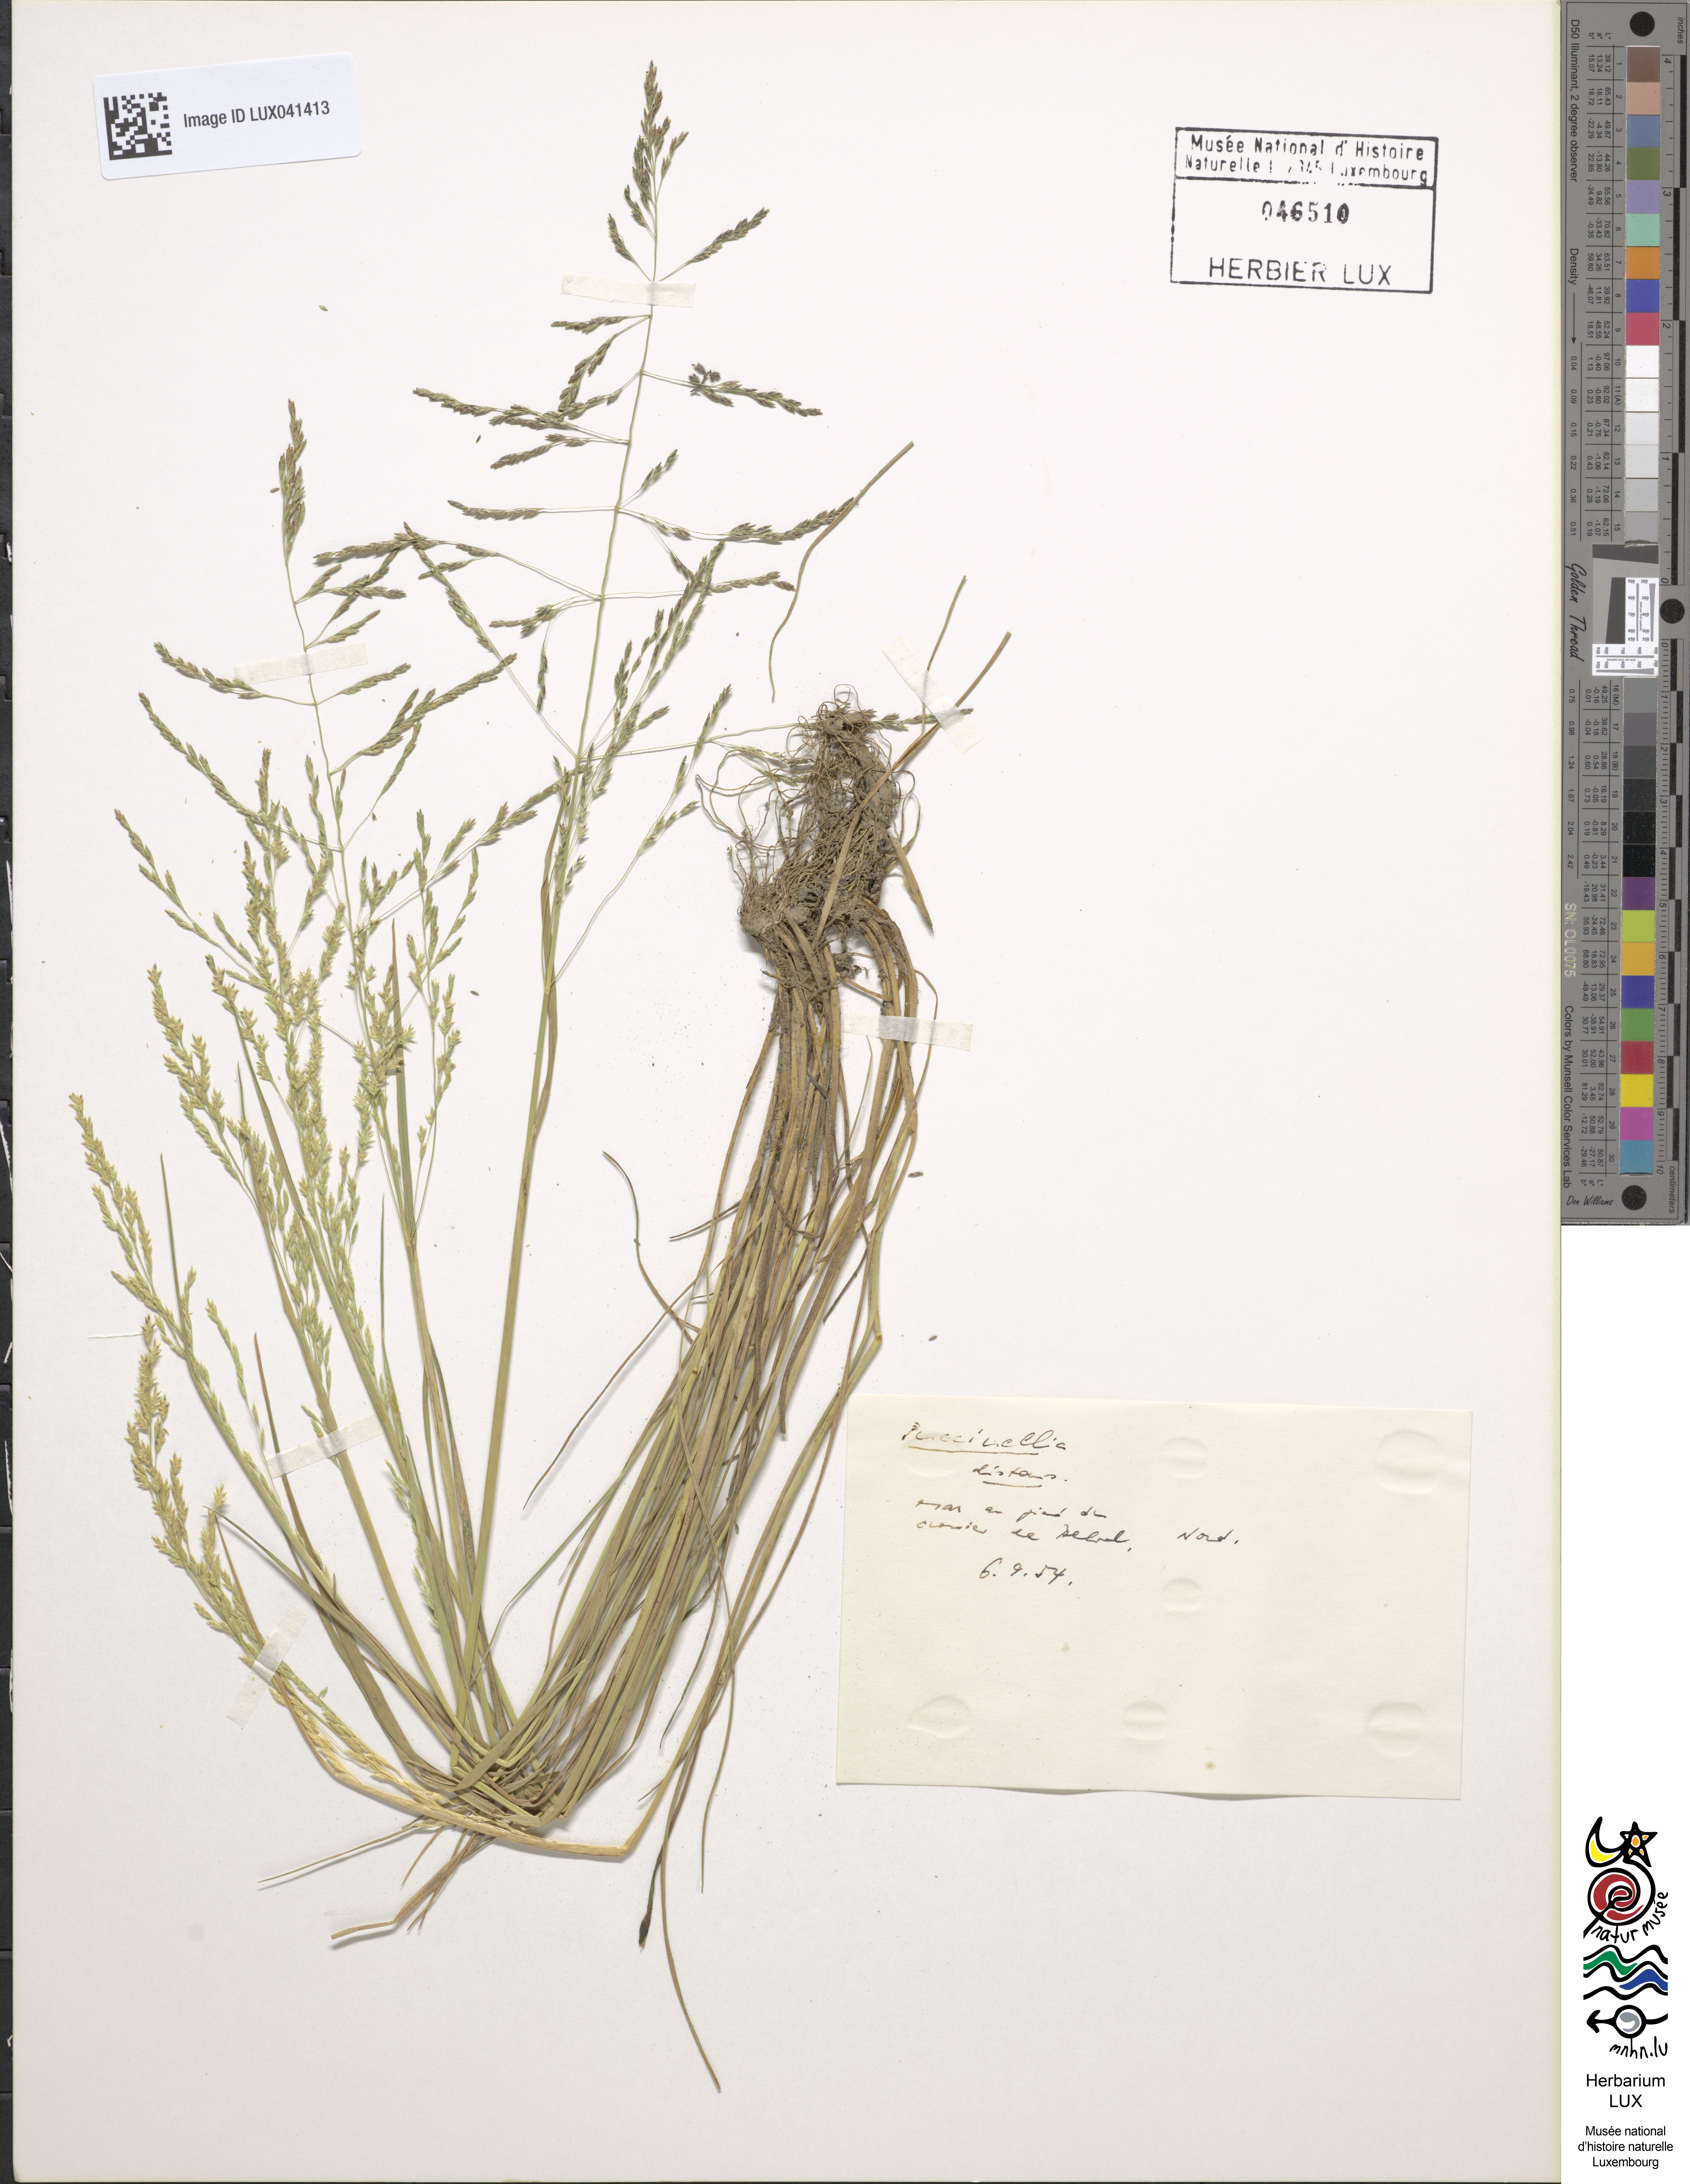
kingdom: Plantae
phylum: Tracheophyta
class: Liliopsida
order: Poales
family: Poaceae
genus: Puccinellia
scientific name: Puccinellia distans
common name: Weeping alkaligrass
